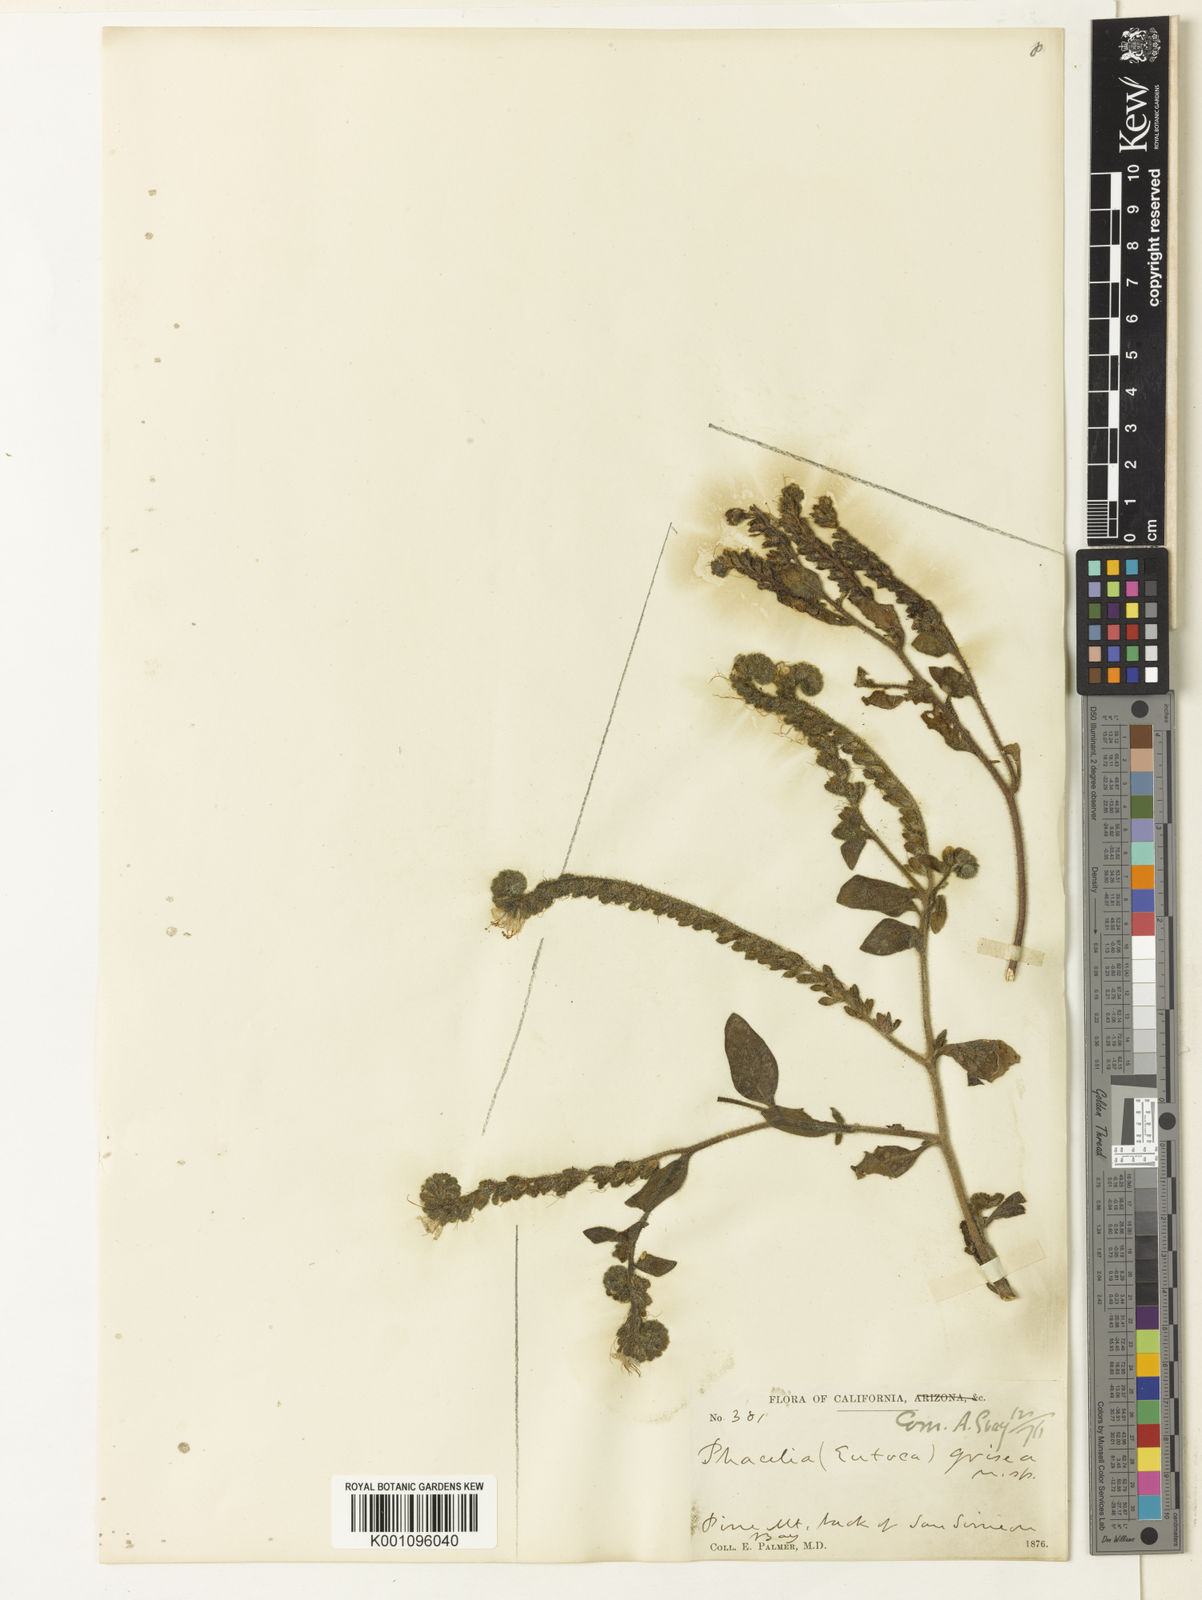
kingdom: Plantae
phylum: Tracheophyta
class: Magnoliopsida
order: Boraginales
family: Hydrophyllaceae
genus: Phacelia
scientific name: Phacelia grisea
